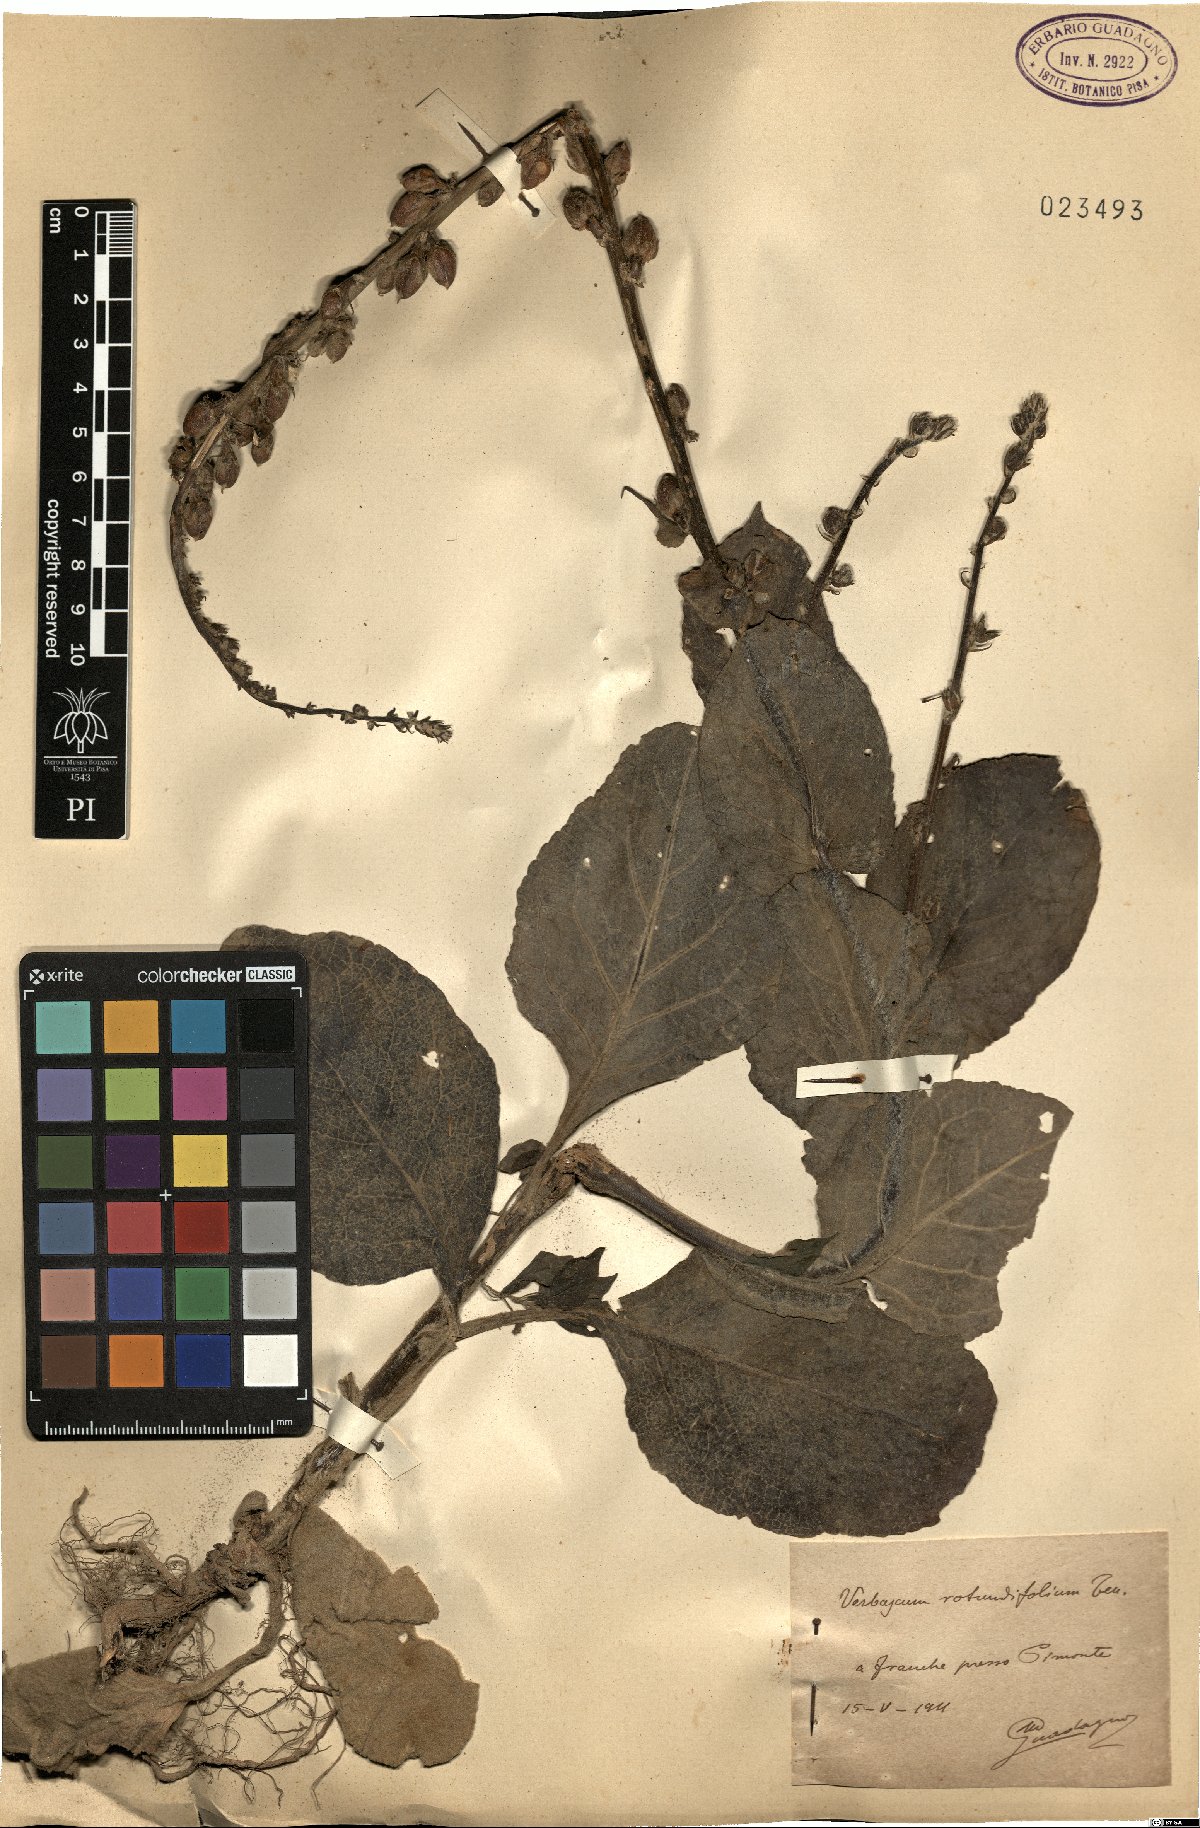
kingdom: Plantae
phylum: Tracheophyta
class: Magnoliopsida
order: Lamiales
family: Scrophulariaceae
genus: Verbascum
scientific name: Verbascum rotundifolium
